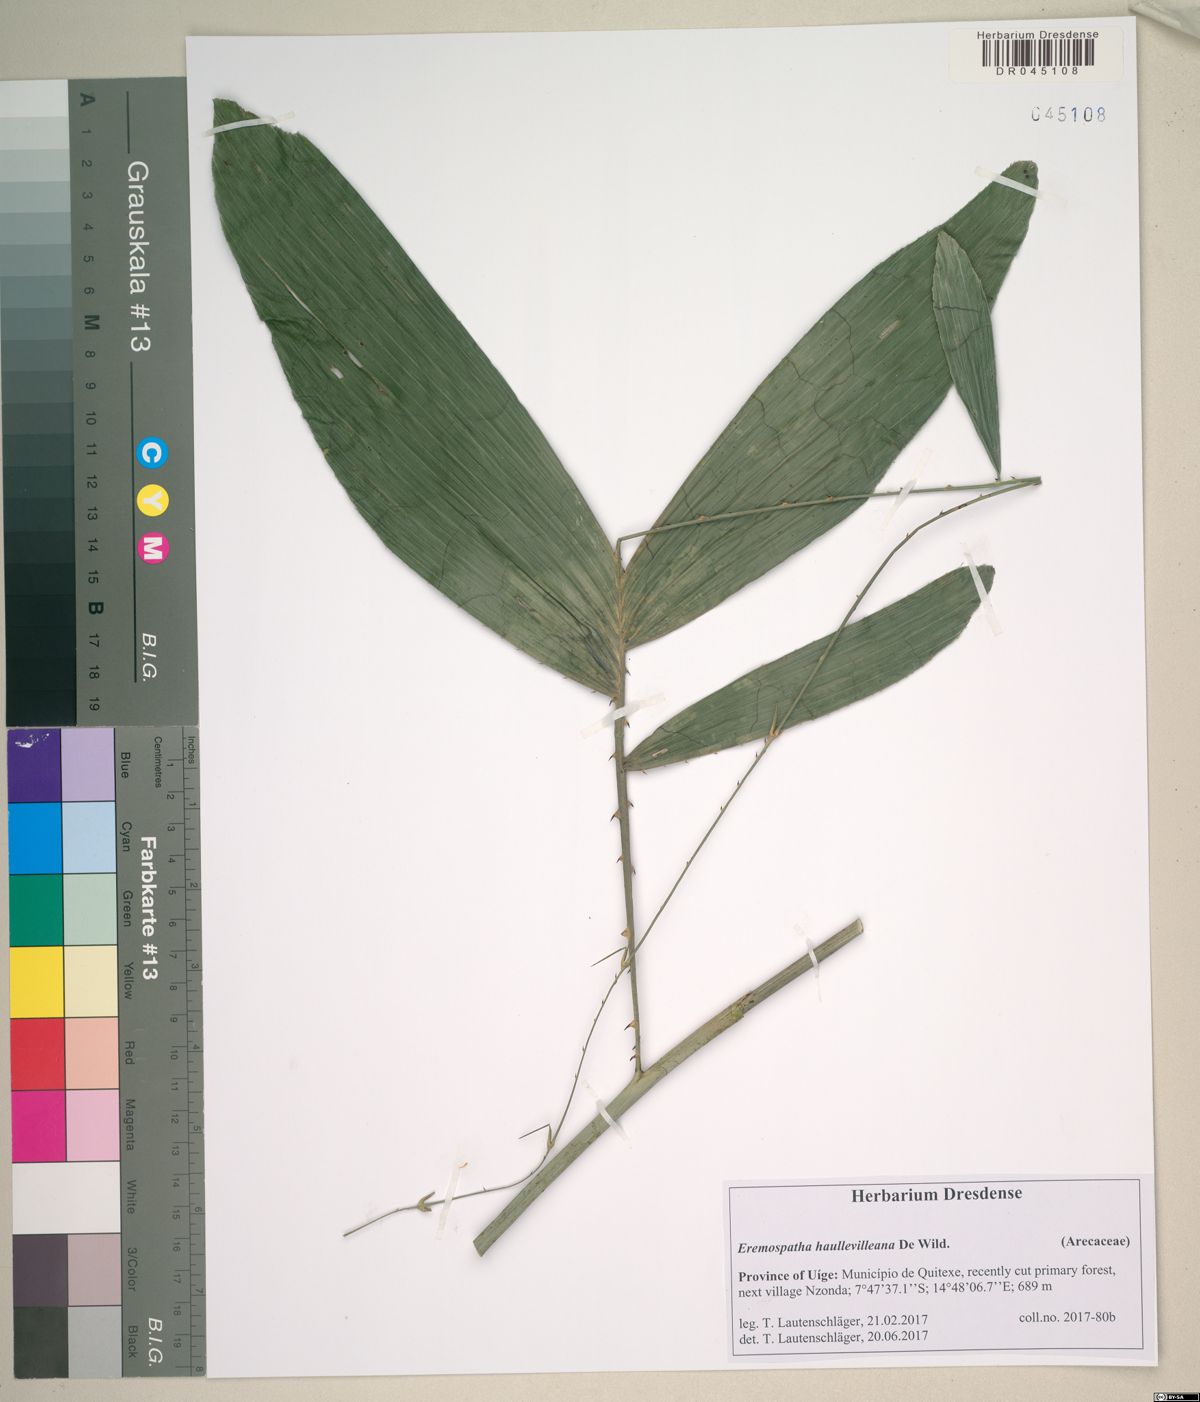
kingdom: Plantae
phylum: Tracheophyta
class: Liliopsida
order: Arecales
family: Arecaceae
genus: Eremospatha
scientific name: Eremospatha haullevilleana
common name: Rattan
